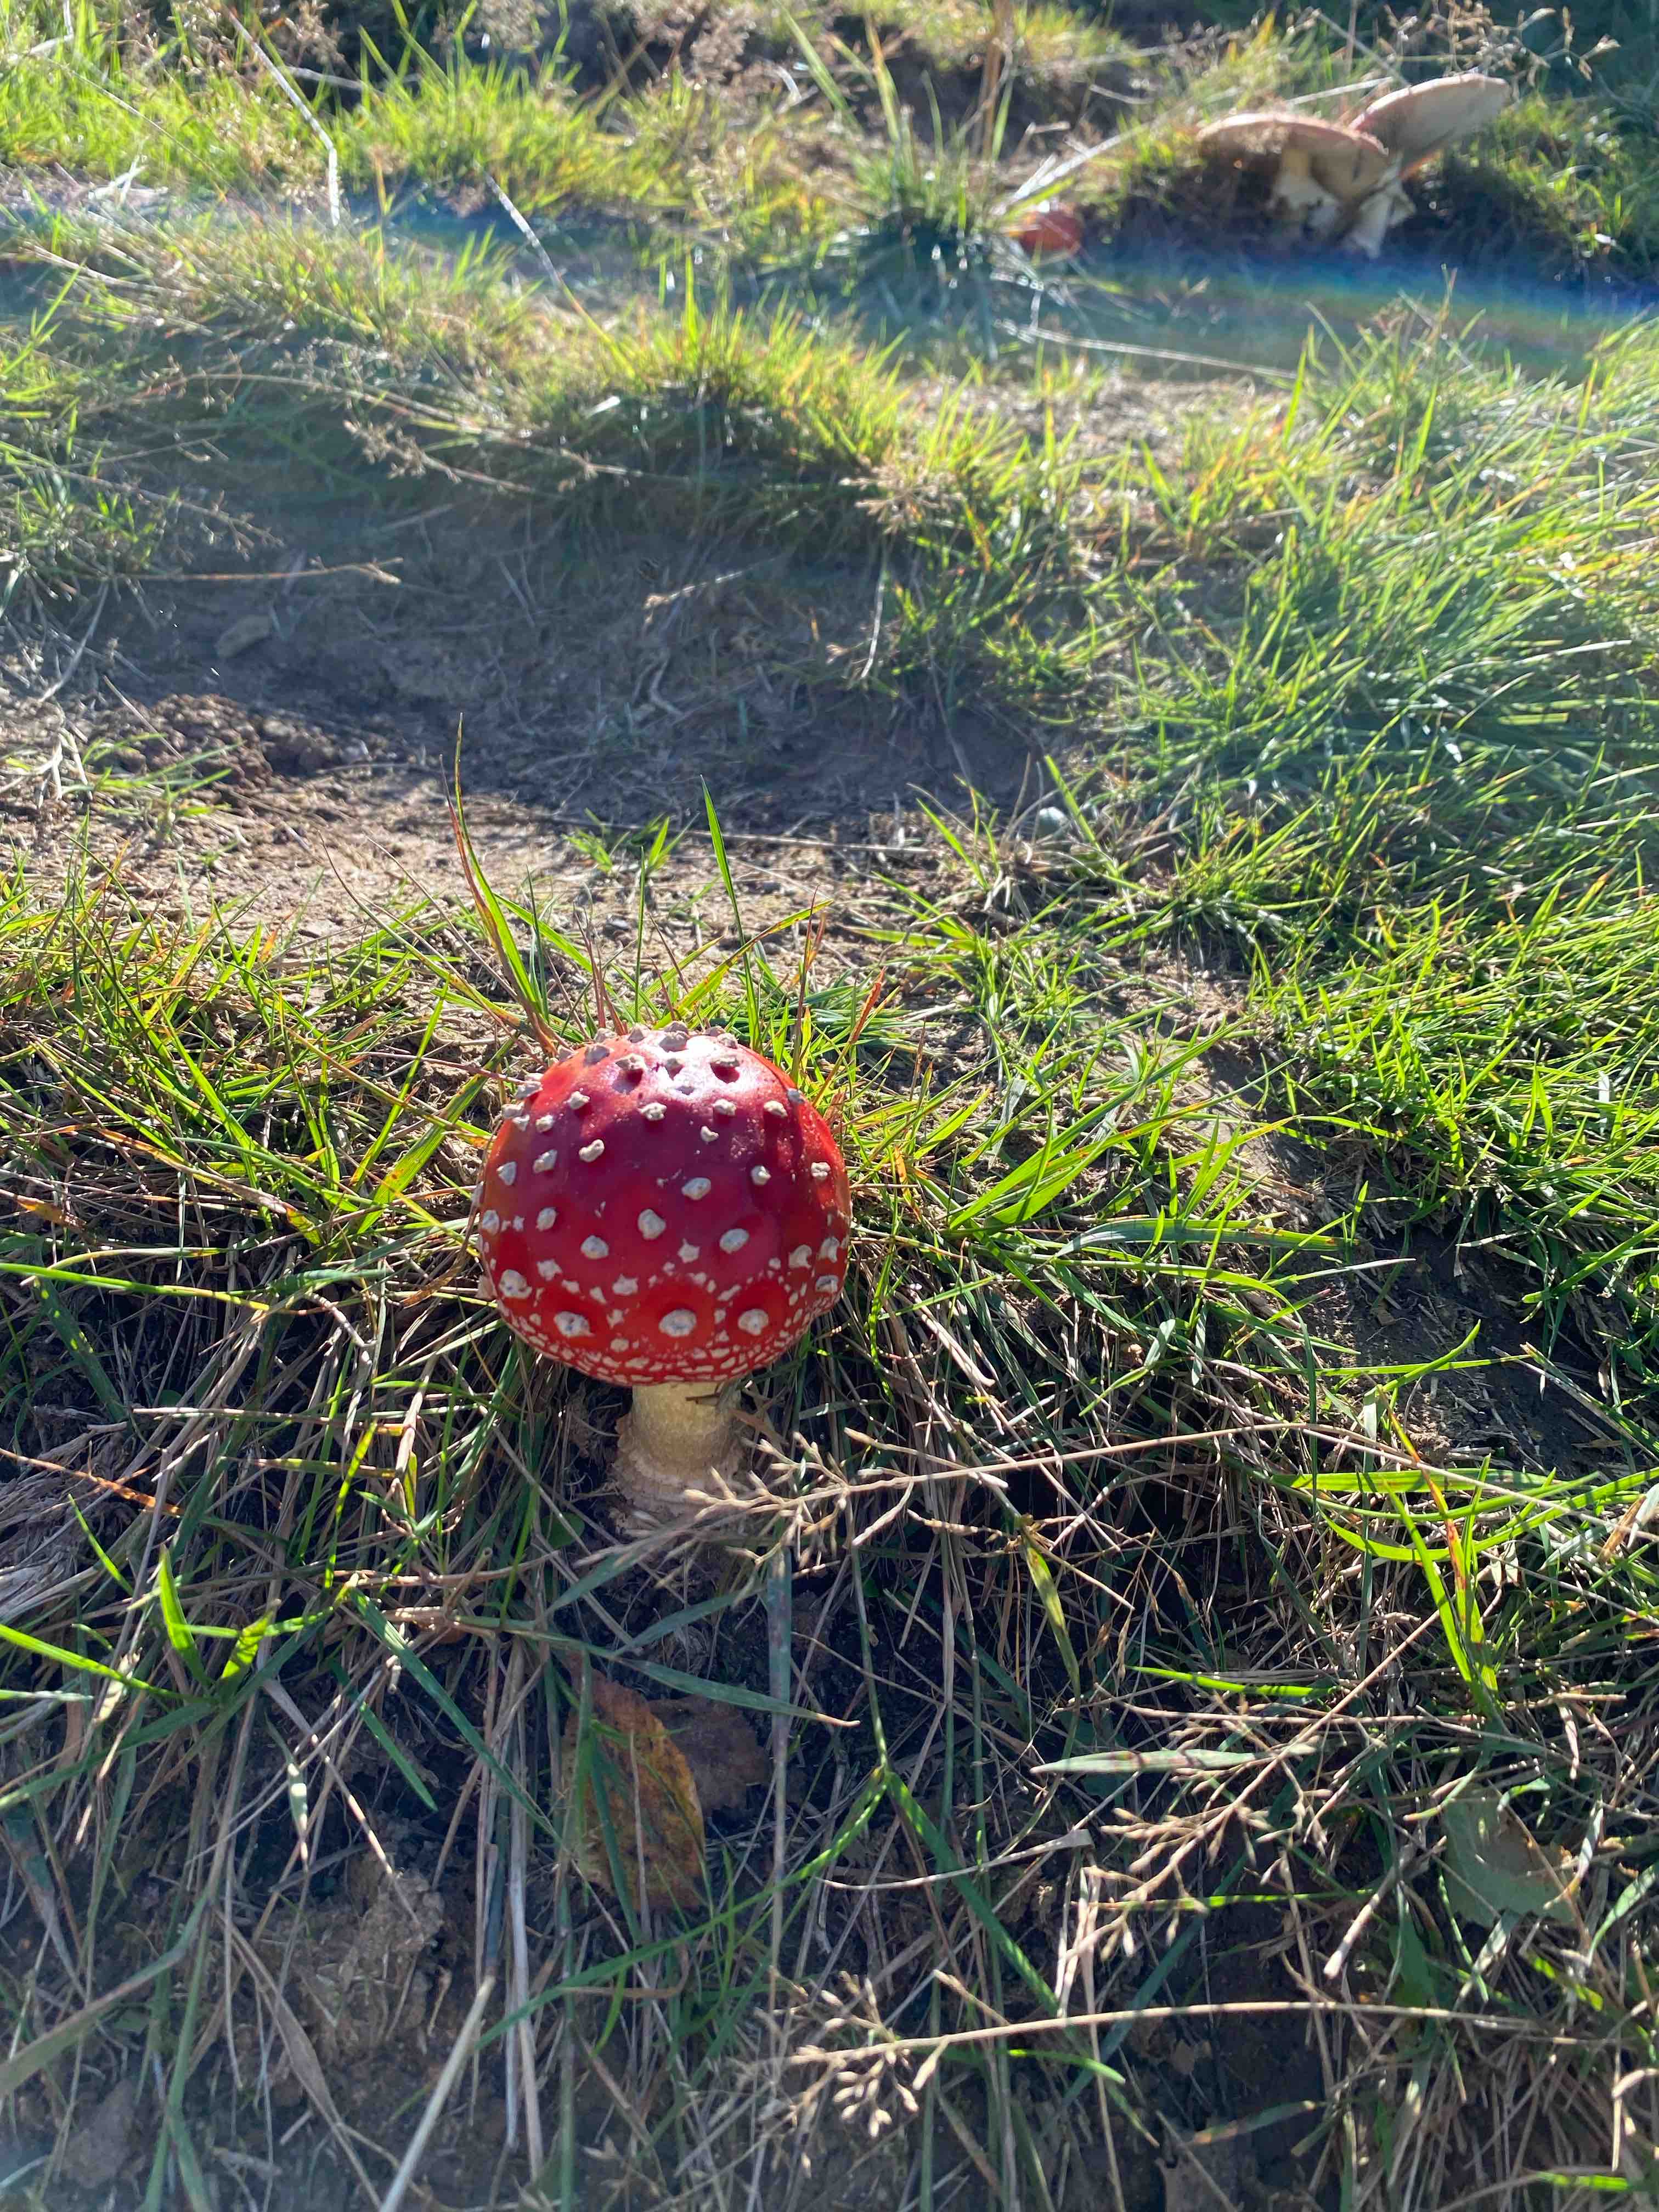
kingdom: Fungi
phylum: Basidiomycota
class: Agaricomycetes
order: Agaricales
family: Amanitaceae
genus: Amanita
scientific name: Amanita muscaria
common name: rød fluesvamp
